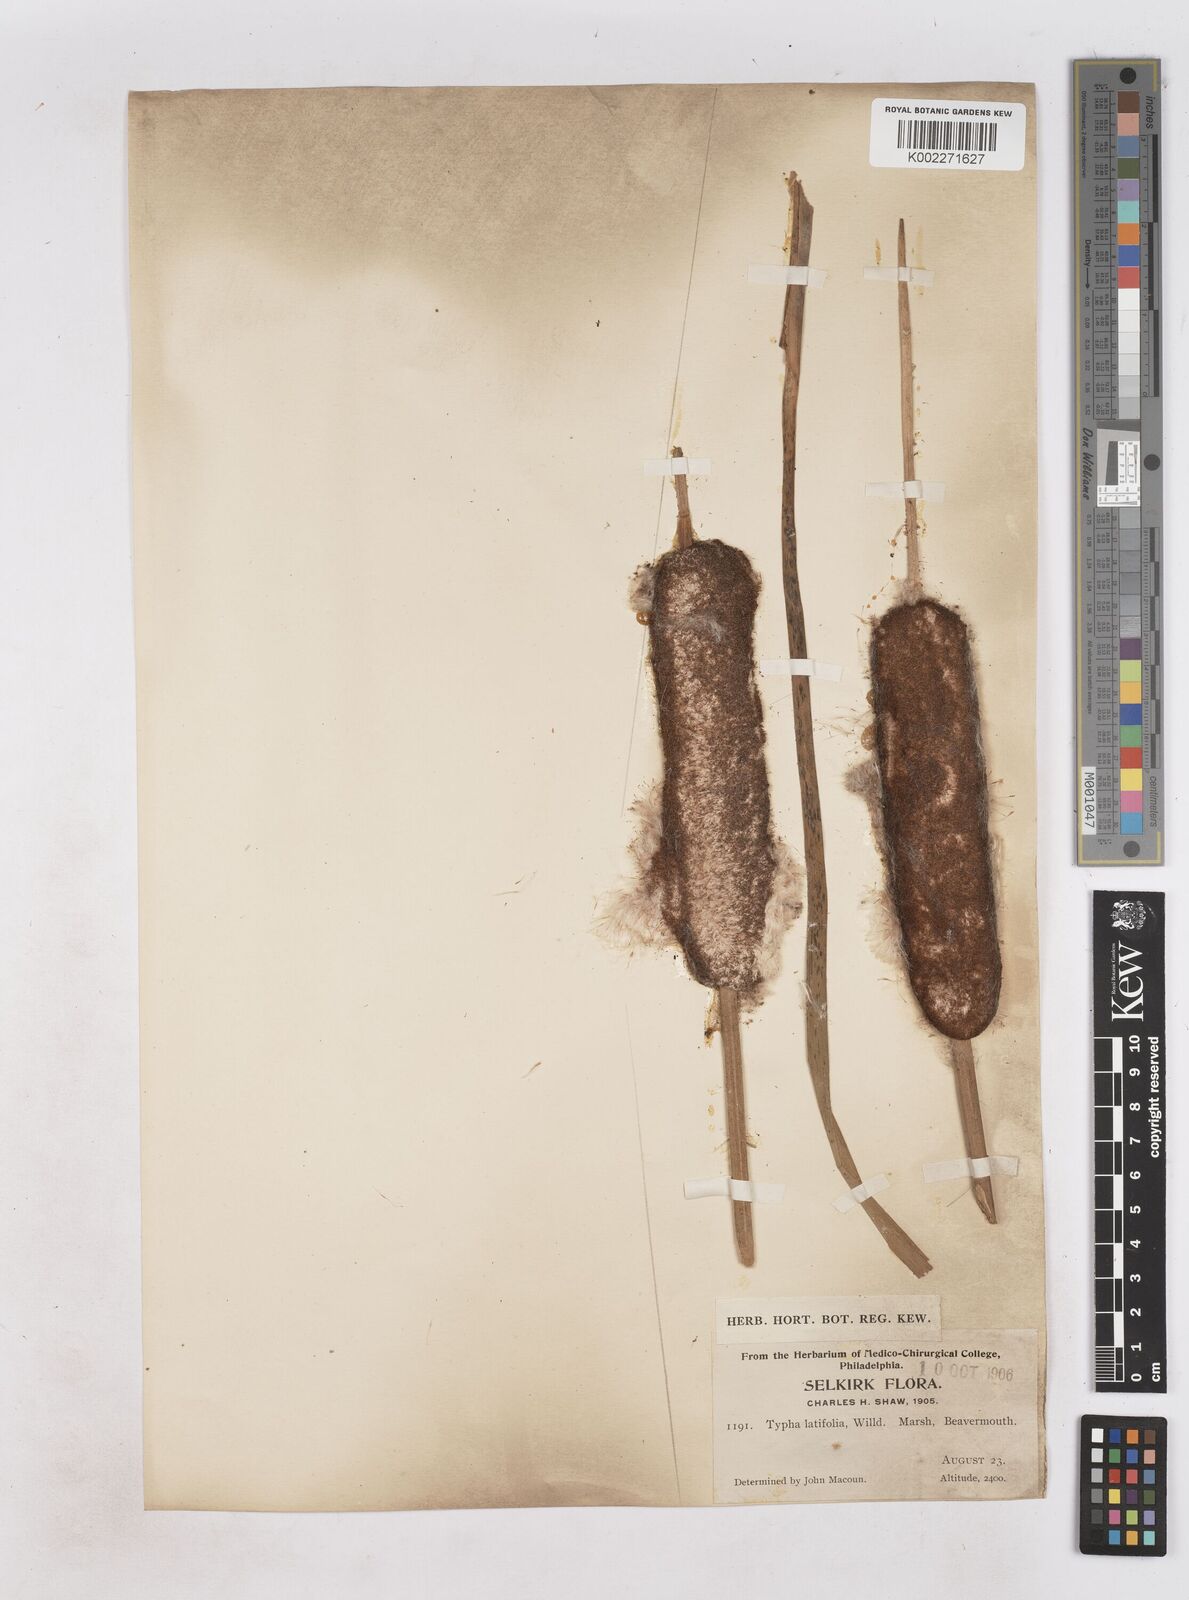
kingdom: Plantae
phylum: Tracheophyta
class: Liliopsida
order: Poales
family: Typhaceae
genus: Typha
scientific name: Typha latifolia
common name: Broadleaf cattail
